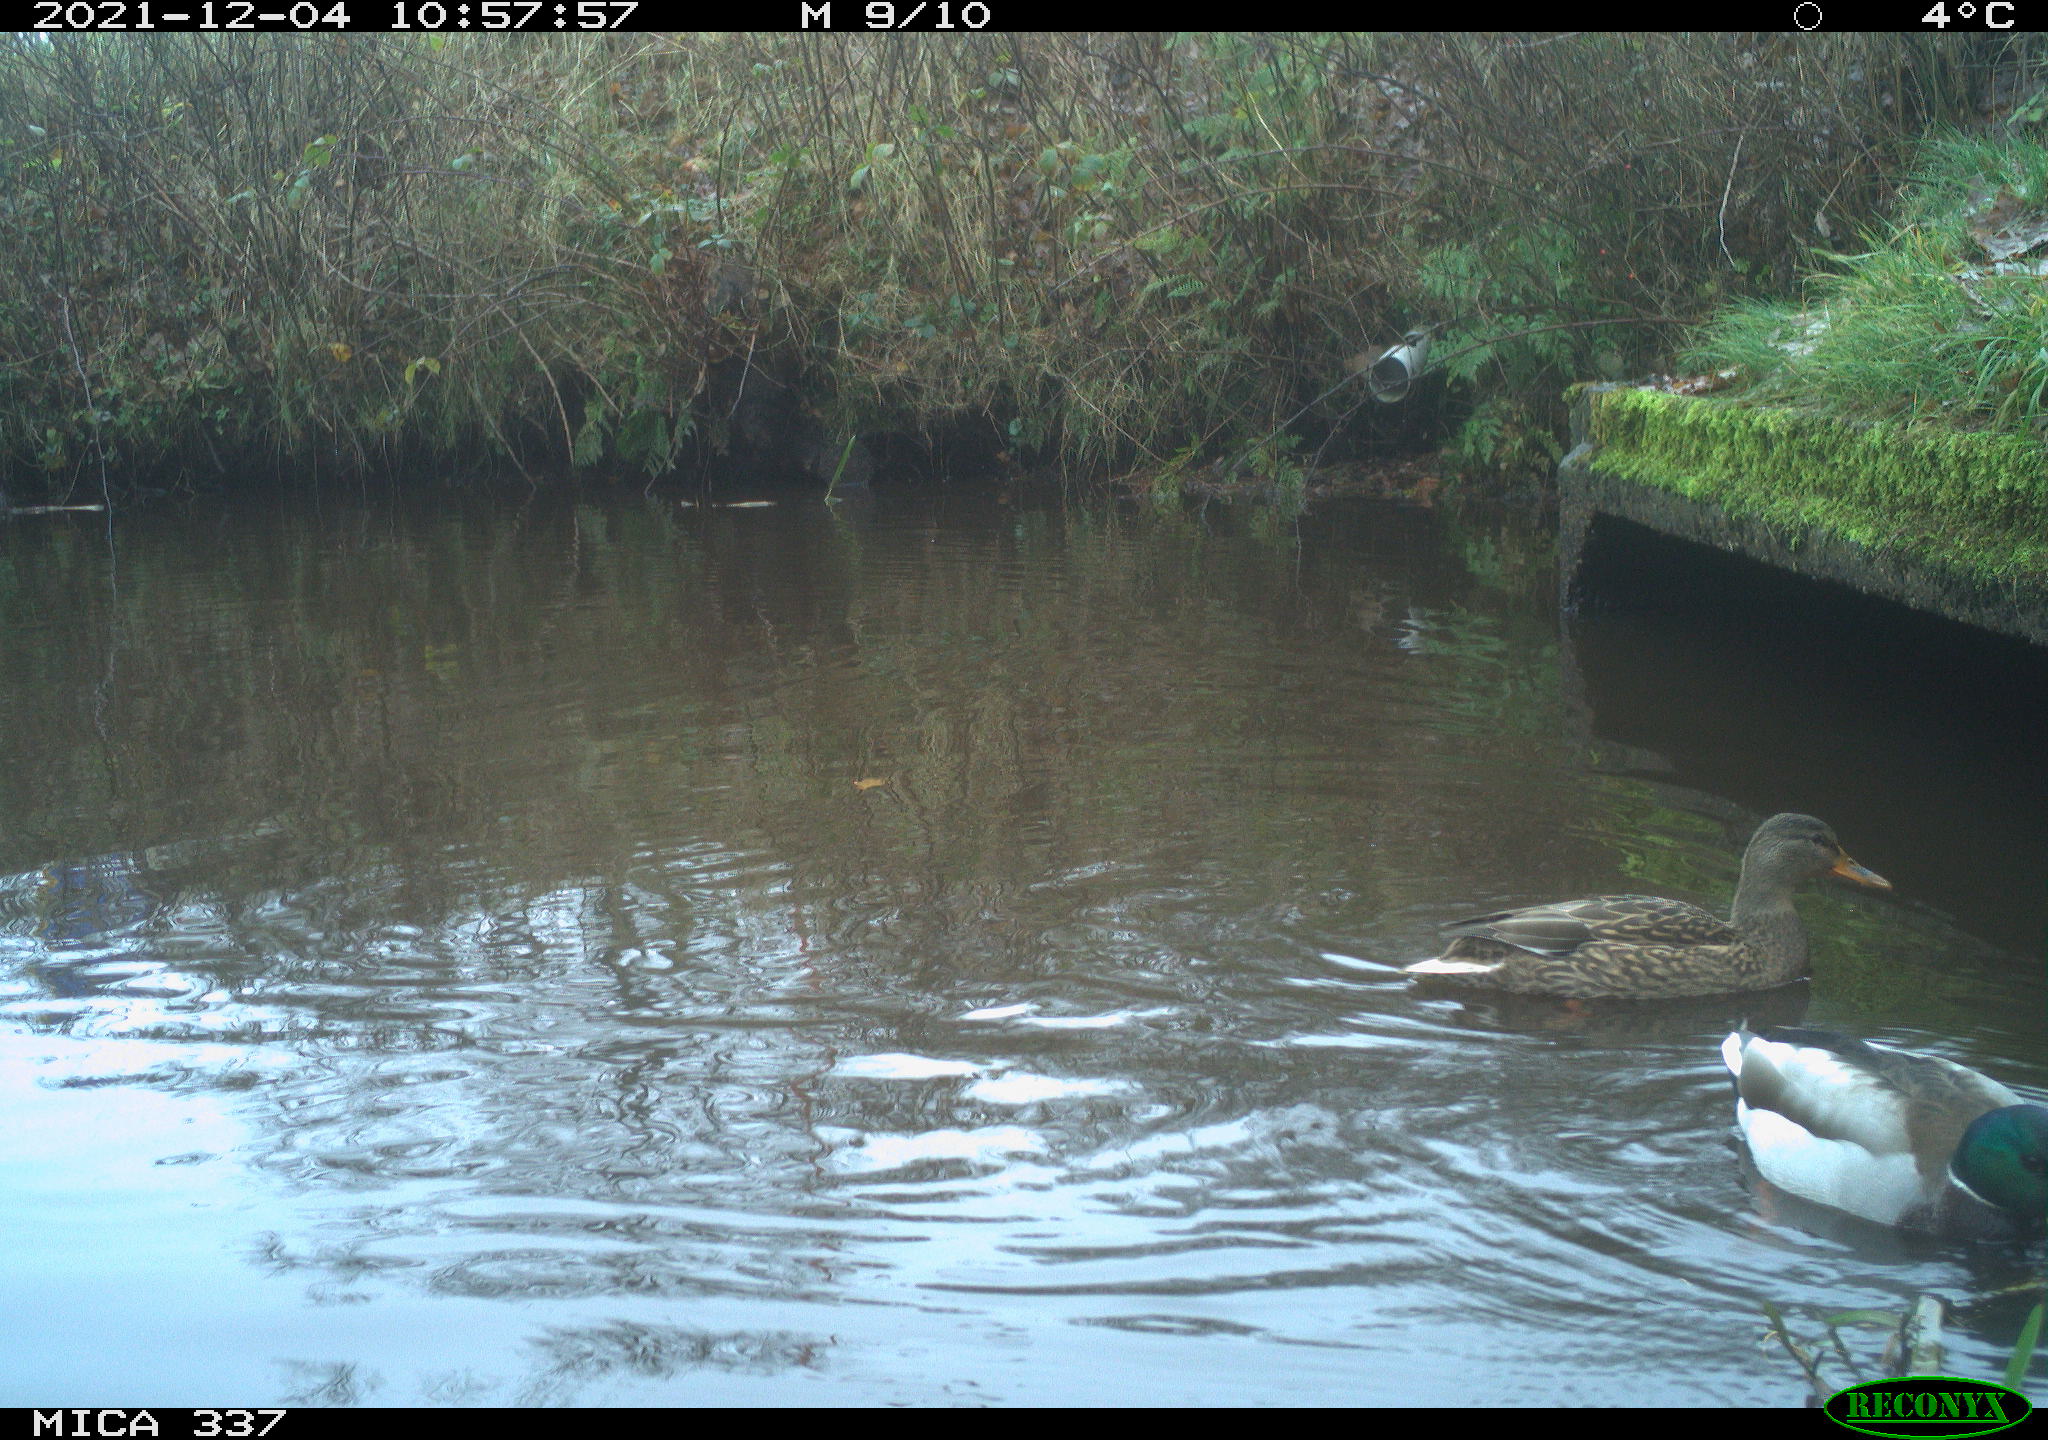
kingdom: Animalia
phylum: Chordata
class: Aves
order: Anseriformes
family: Anatidae
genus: Anas
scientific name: Anas platyrhynchos
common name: Mallard
